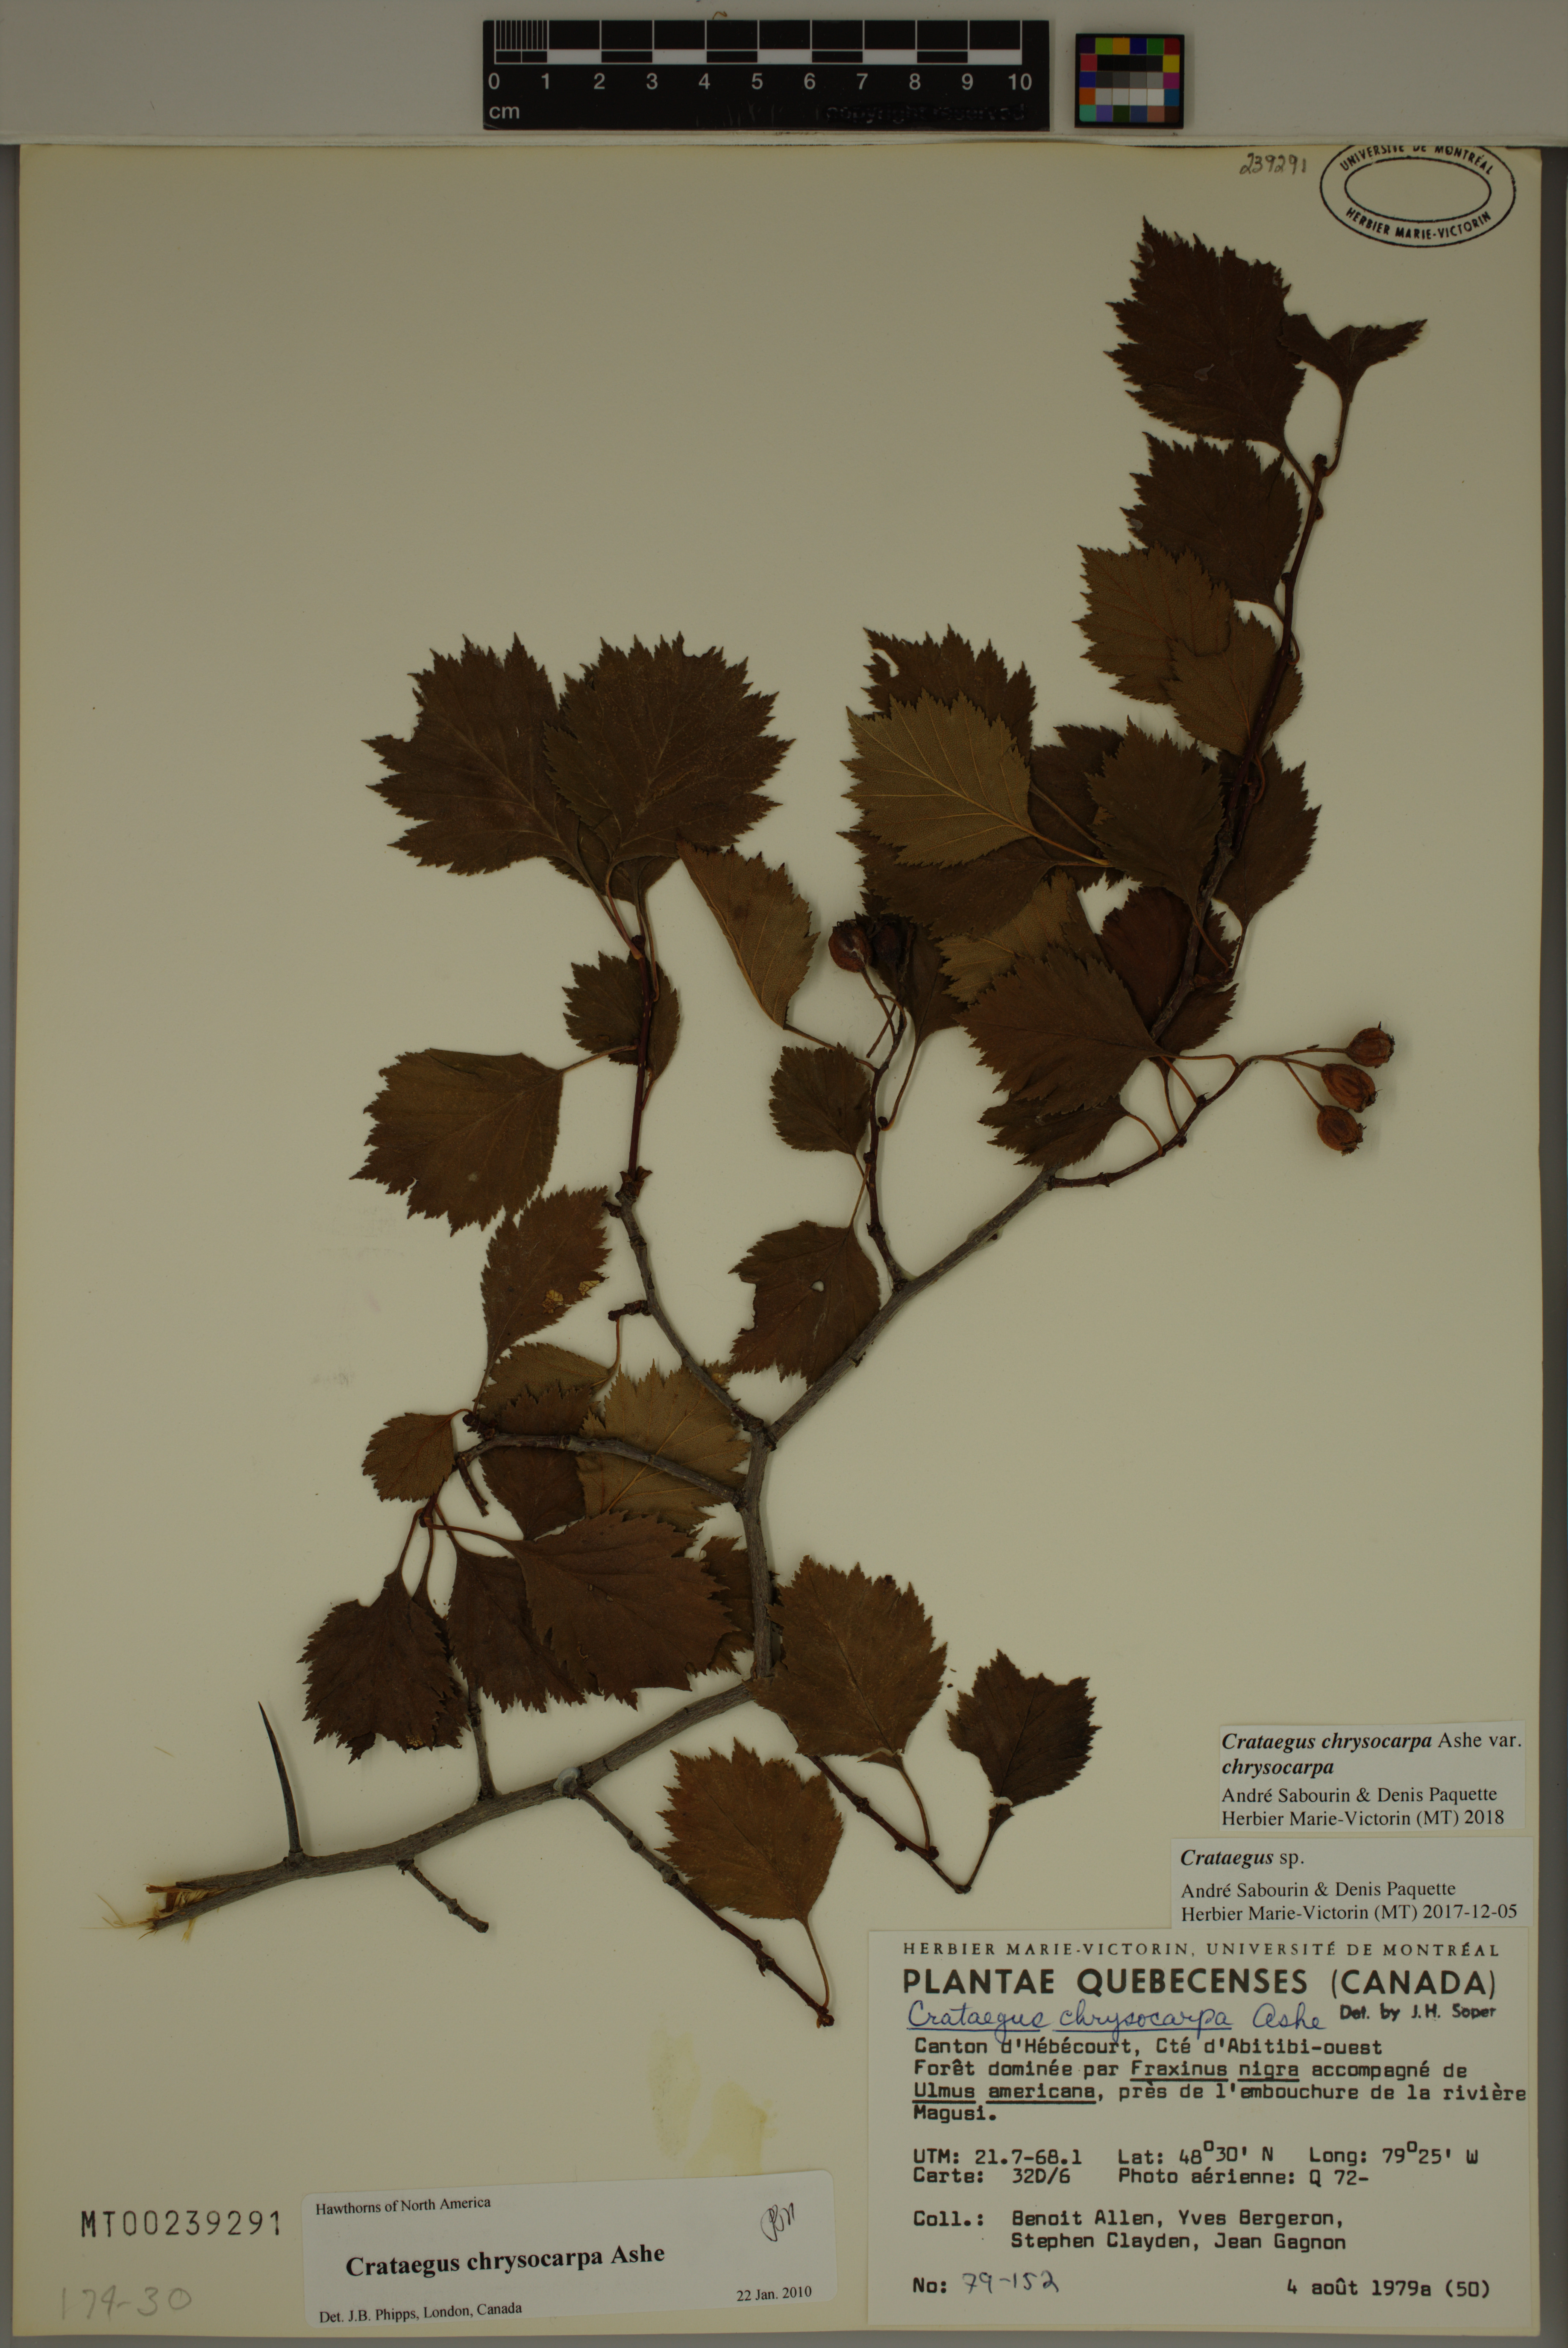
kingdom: Plantae
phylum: Tracheophyta
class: Magnoliopsida
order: Rosales
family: Rosaceae
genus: Crataegus
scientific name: Crataegus chrysocarpa
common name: Fire-berry hawthorn
